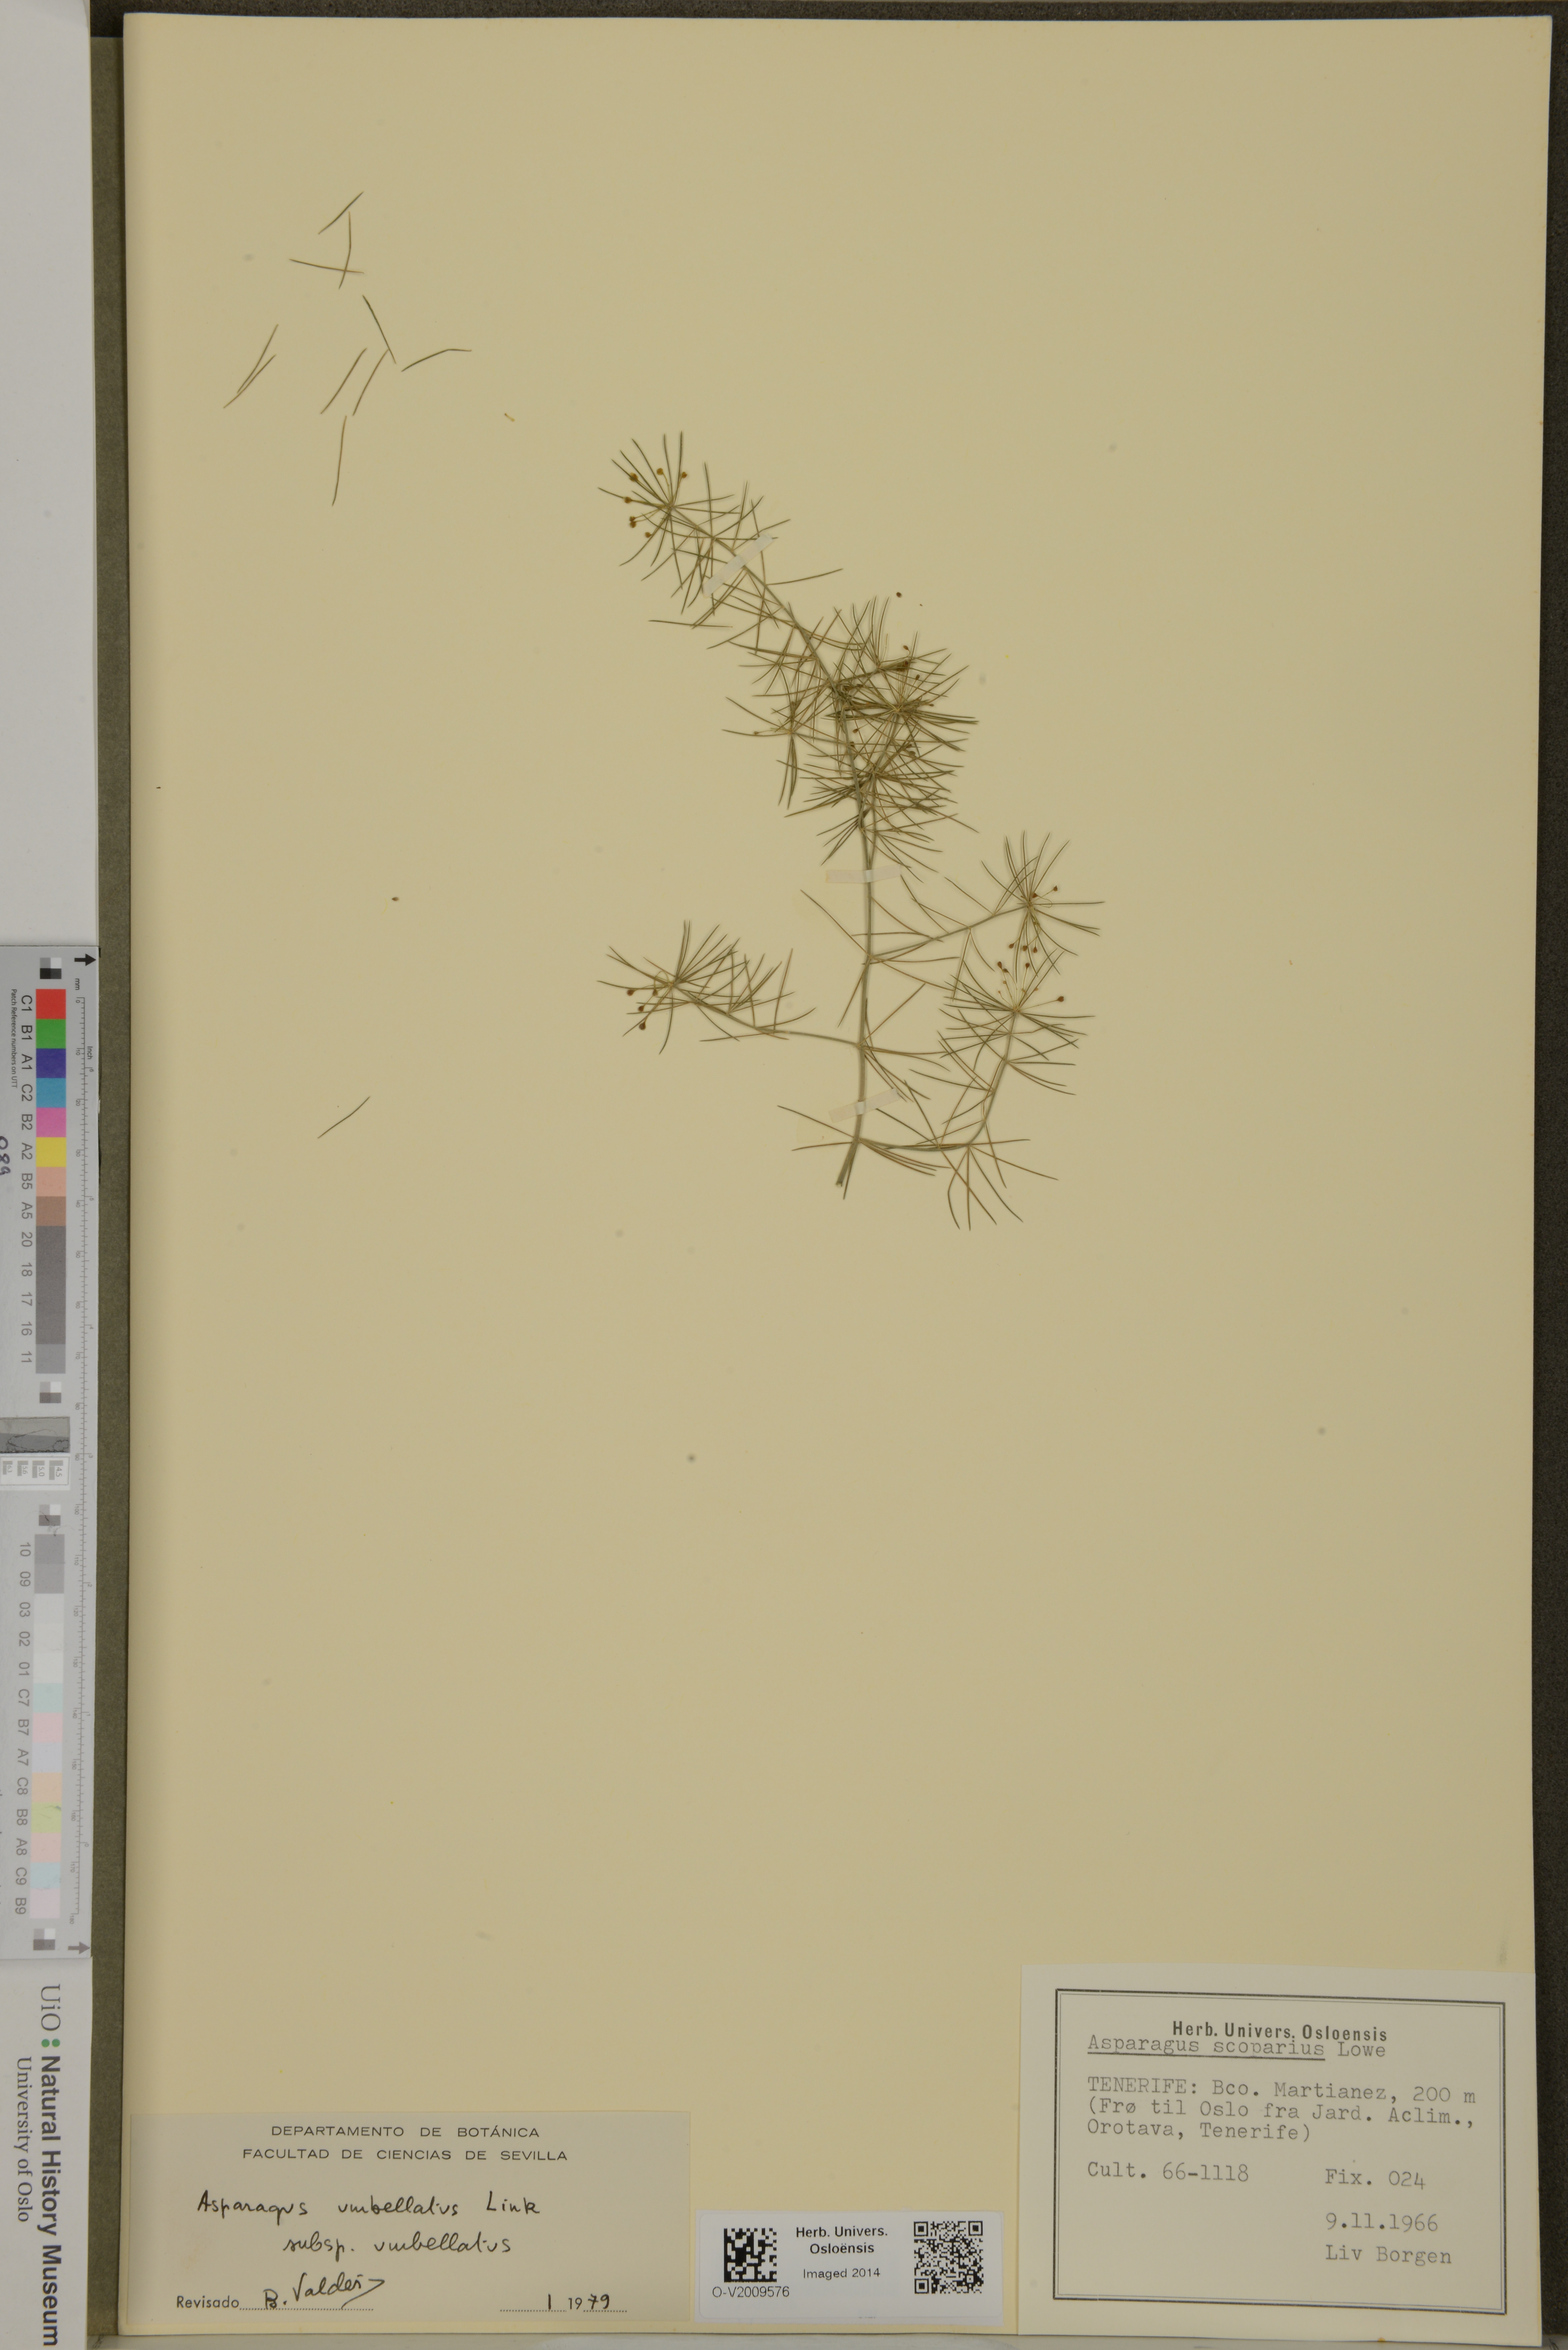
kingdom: Plantae
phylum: Tracheophyta
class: Liliopsida
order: Asparagales
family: Asparagaceae
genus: Asparagus
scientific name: Asparagus umbellatus
